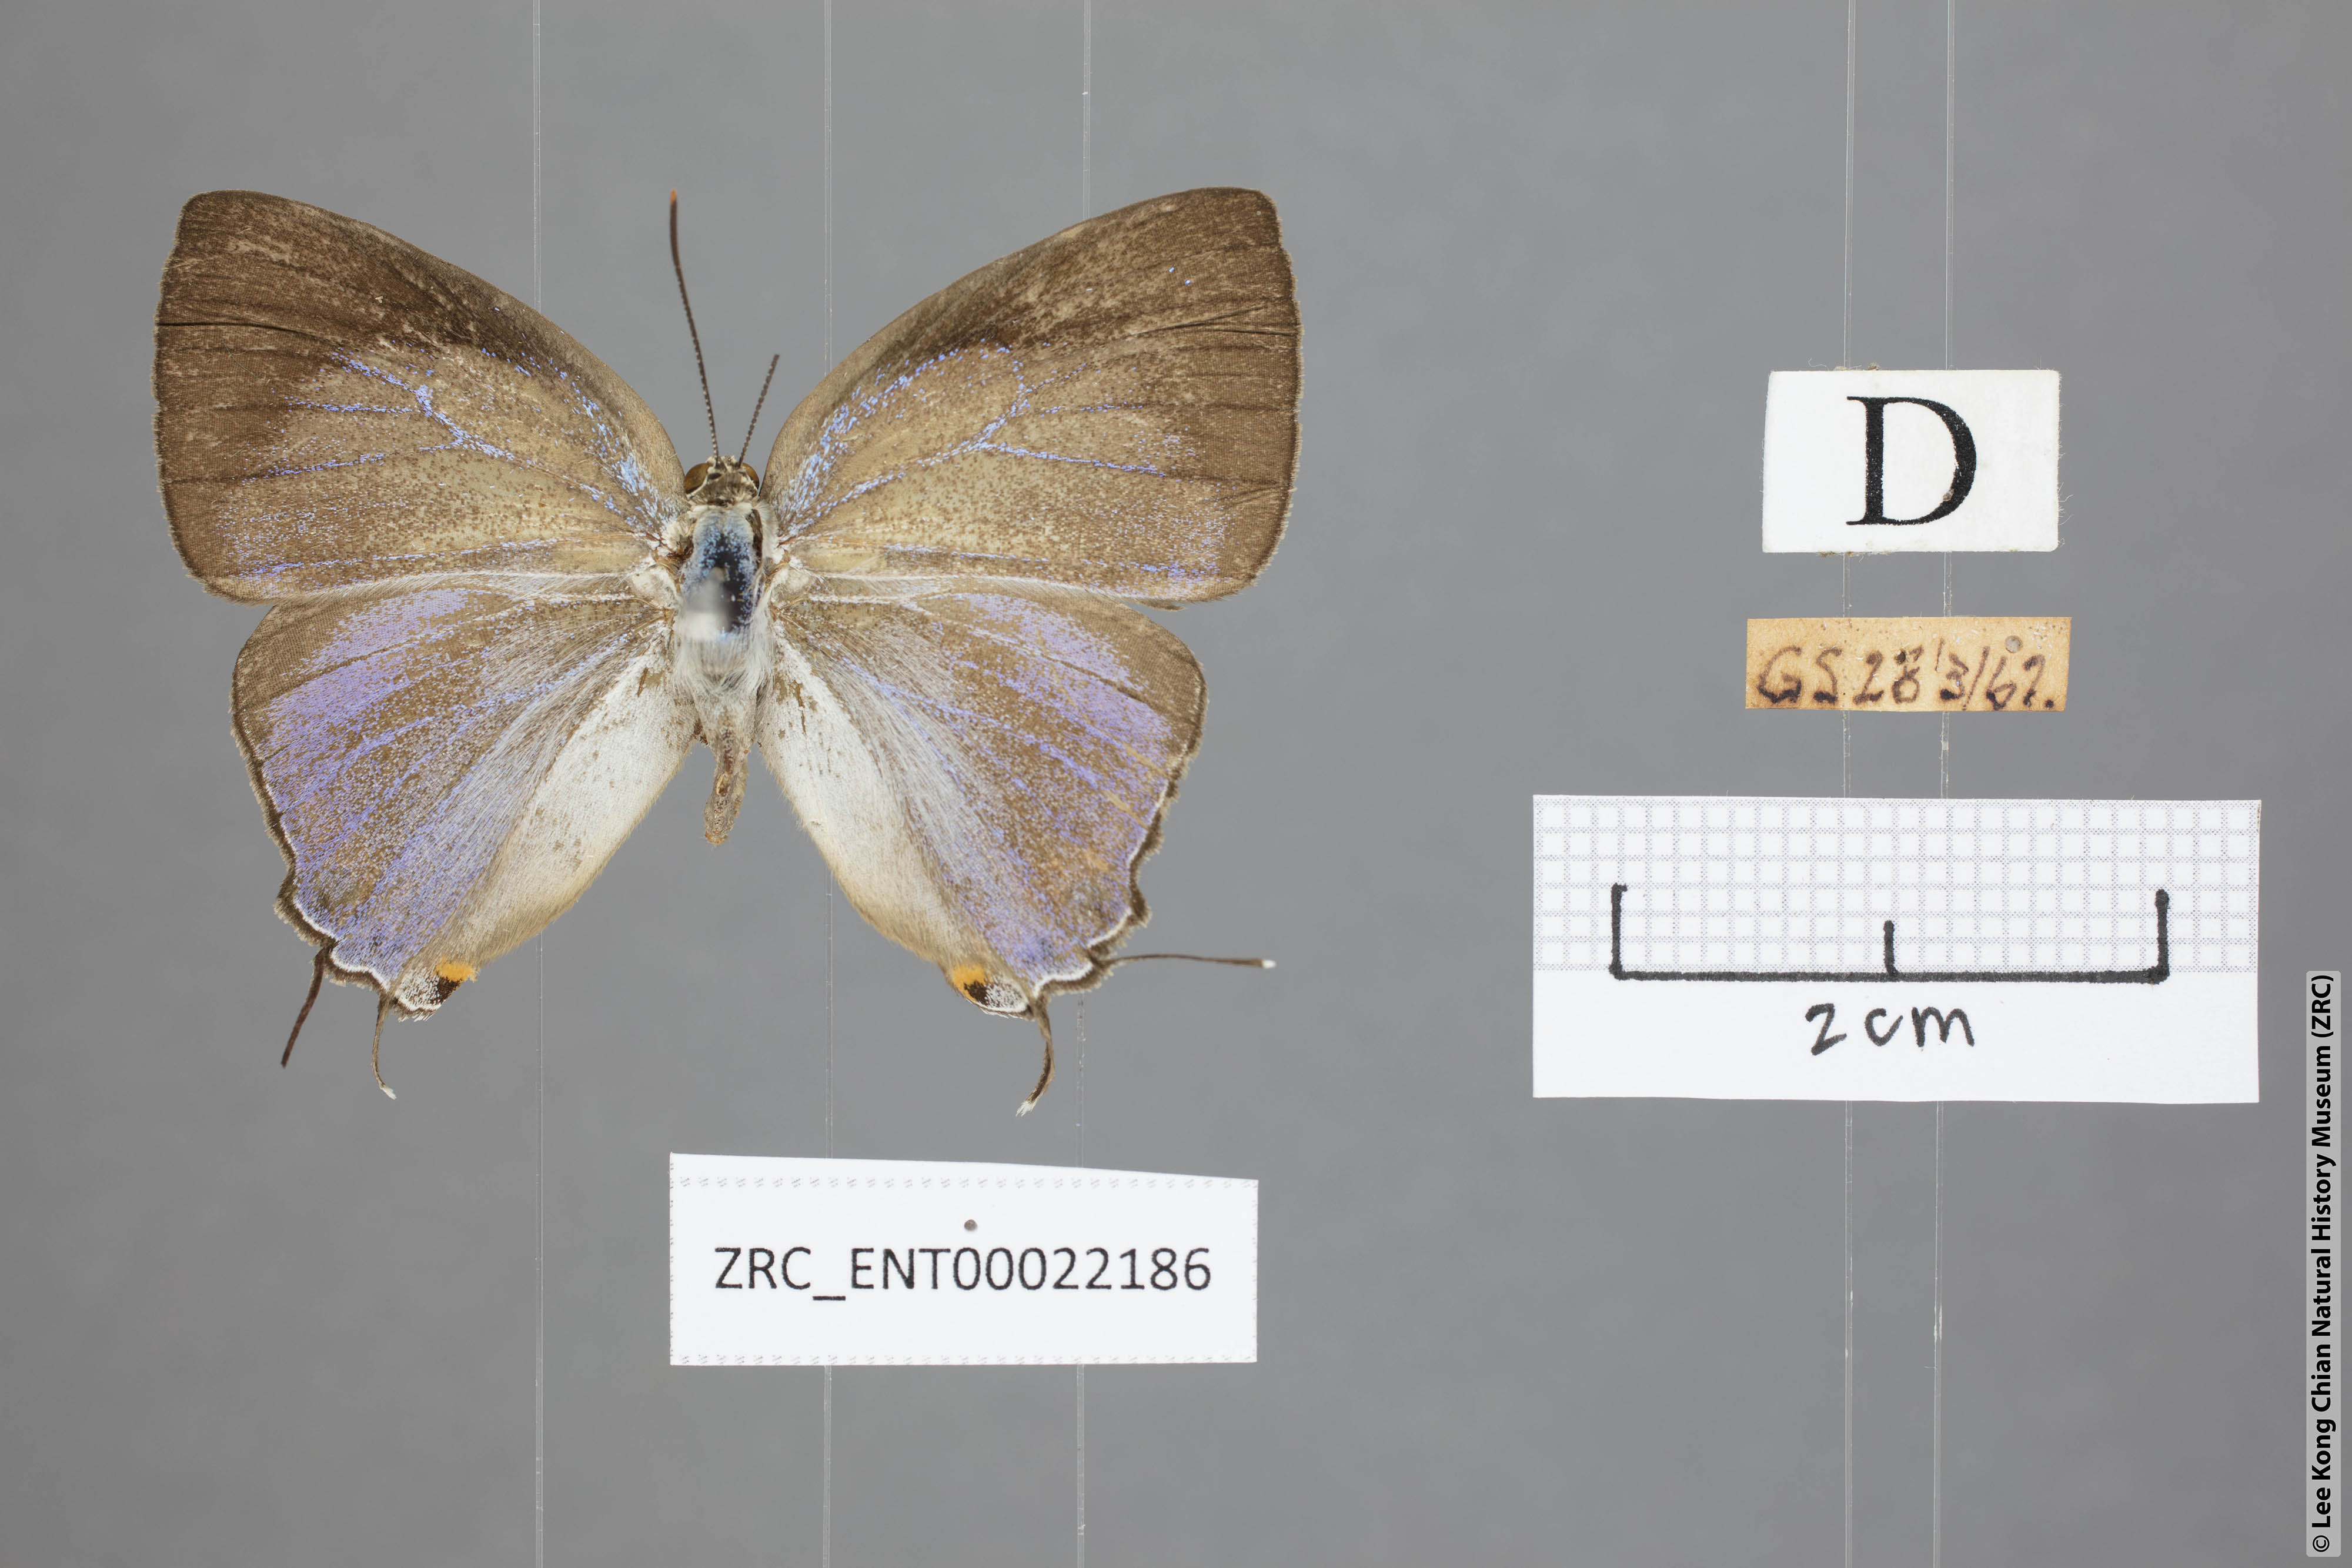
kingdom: Animalia
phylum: Arthropoda
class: Insecta
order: Lepidoptera
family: Lycaenidae
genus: Tajuria
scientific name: Tajuria deudaix
